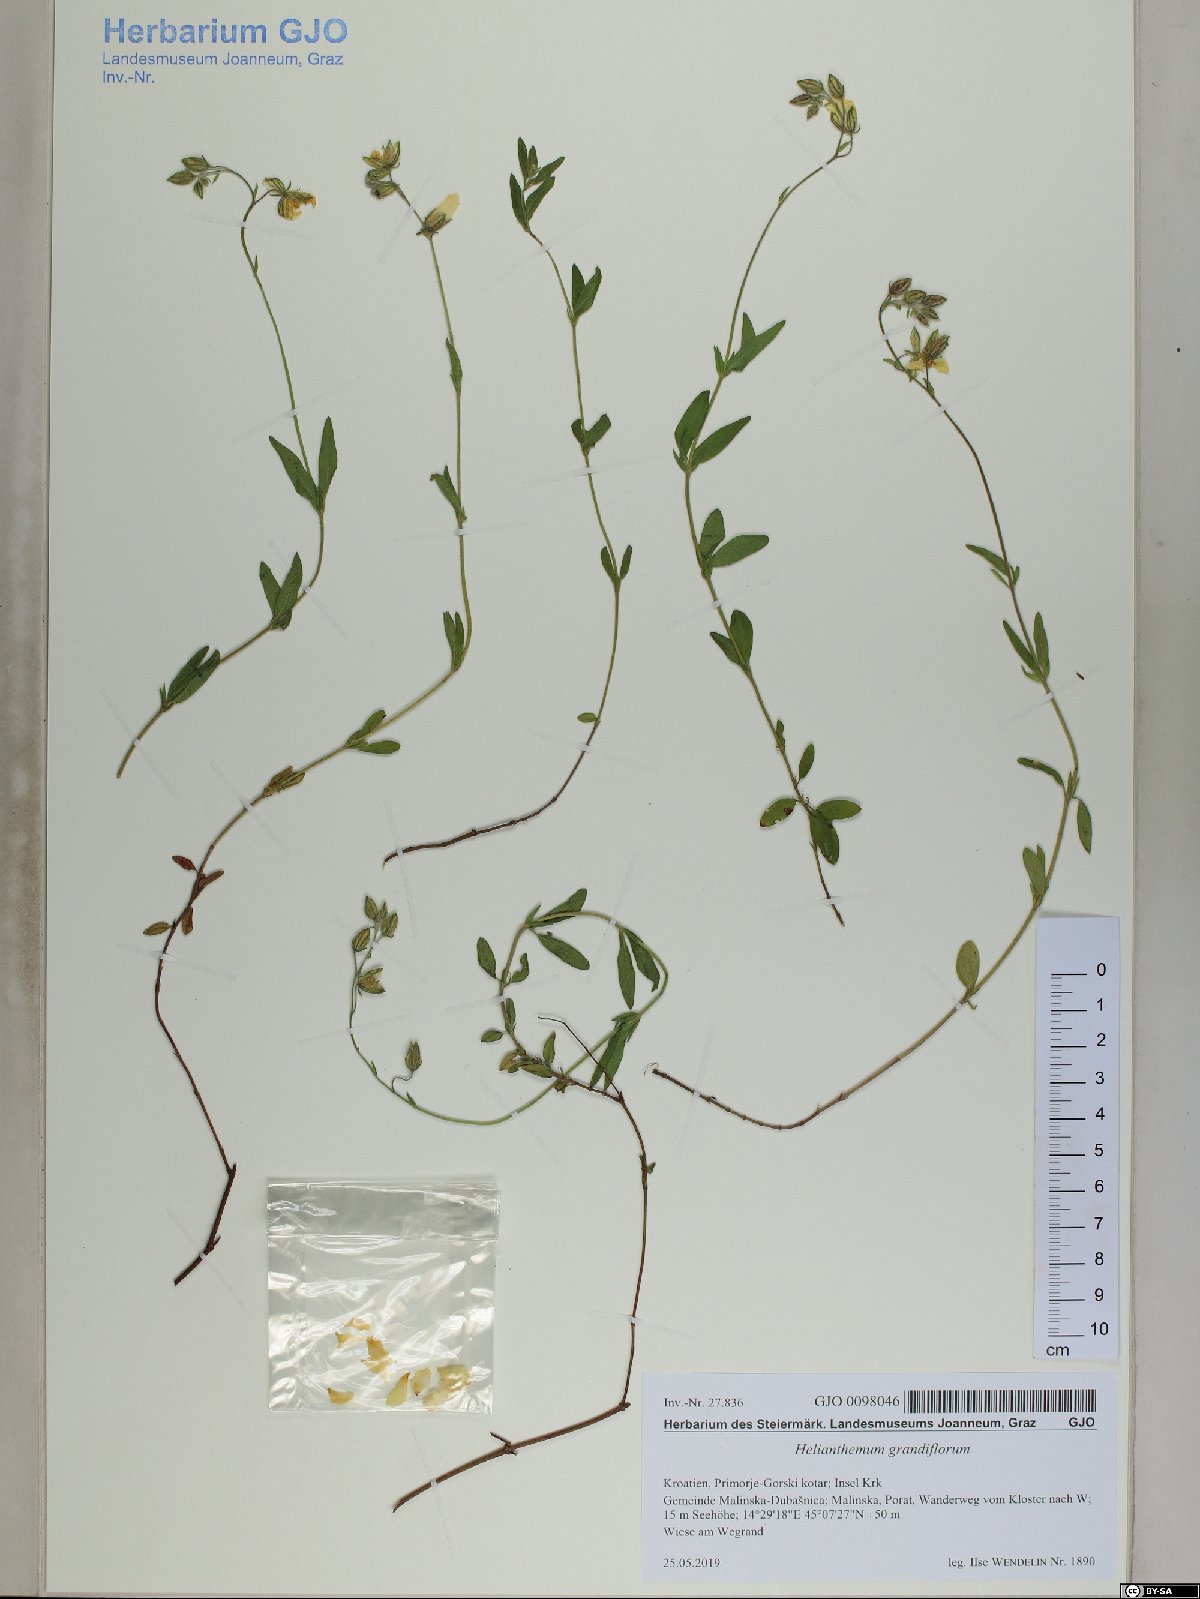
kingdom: Plantae
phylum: Tracheophyta
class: Magnoliopsida
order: Malvales
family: Cistaceae
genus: Helianthemum
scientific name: Helianthemum nummularium
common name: Common rock-rose
